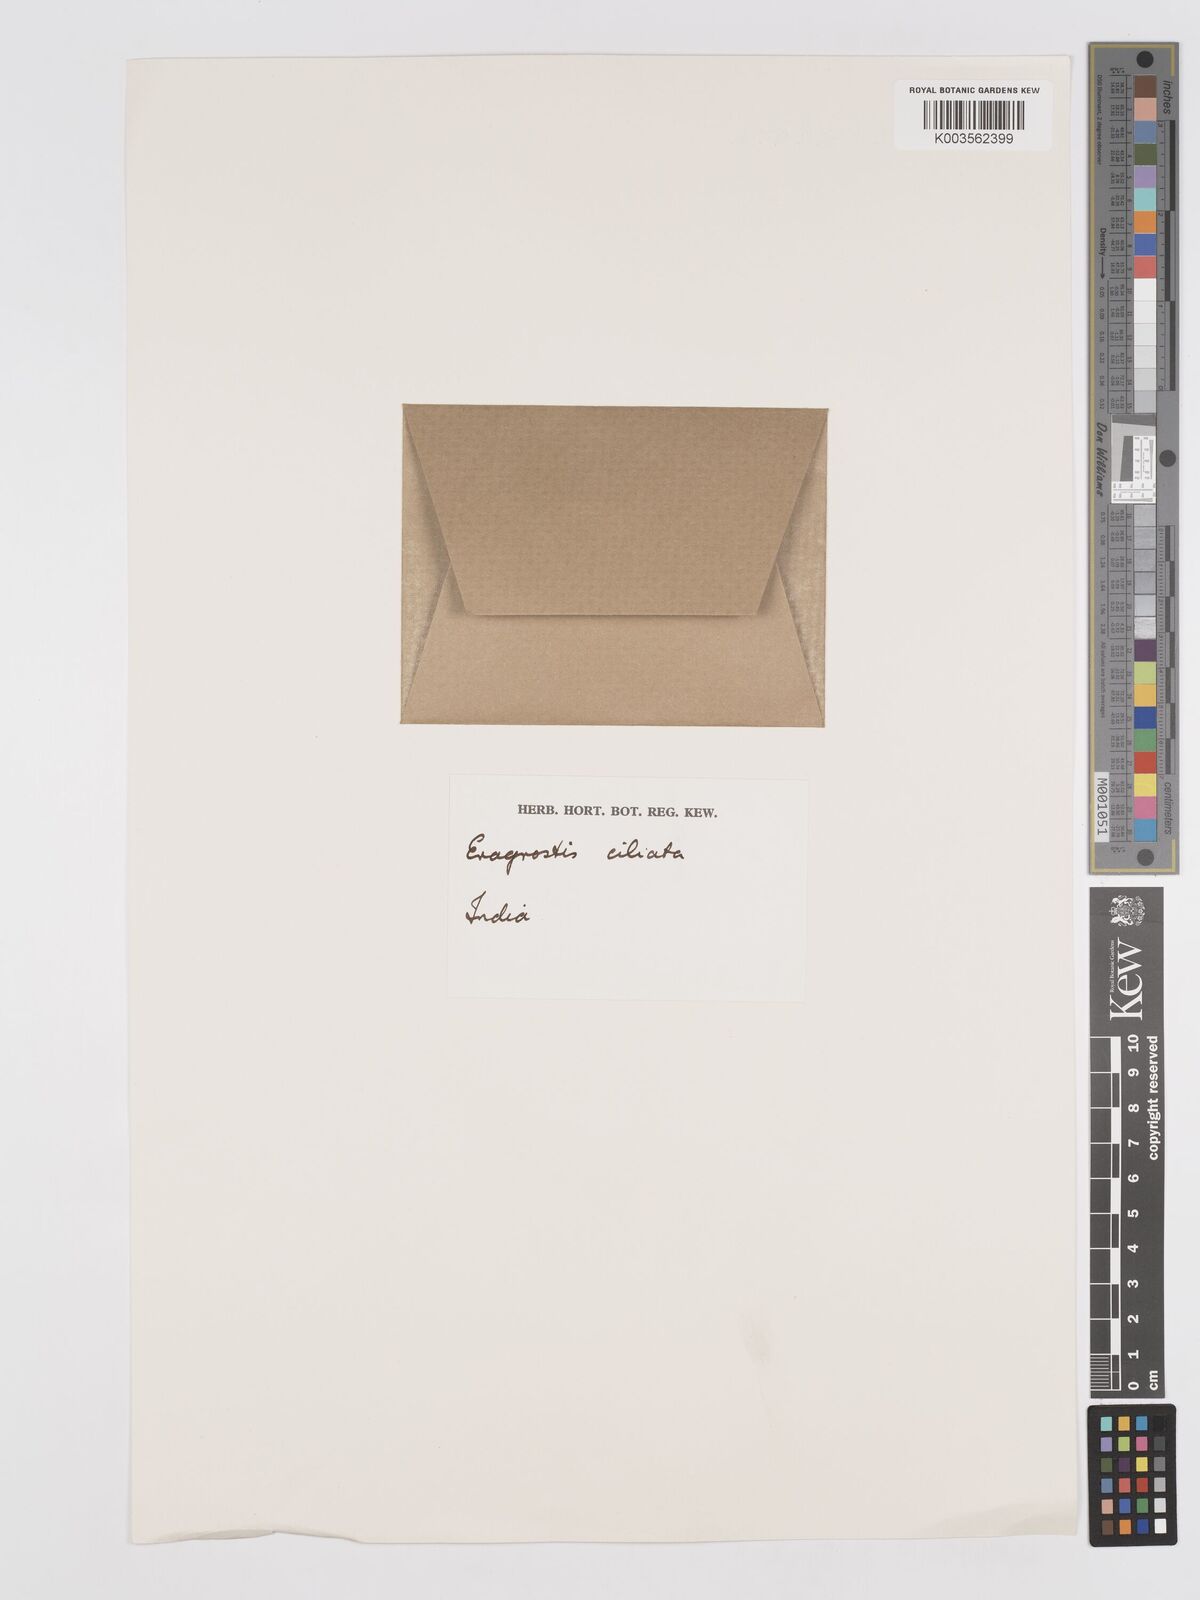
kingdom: Plantae
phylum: Tracheophyta
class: Liliopsida
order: Poales
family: Poaceae
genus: Eragrostis
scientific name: Eragrostis ciliata
